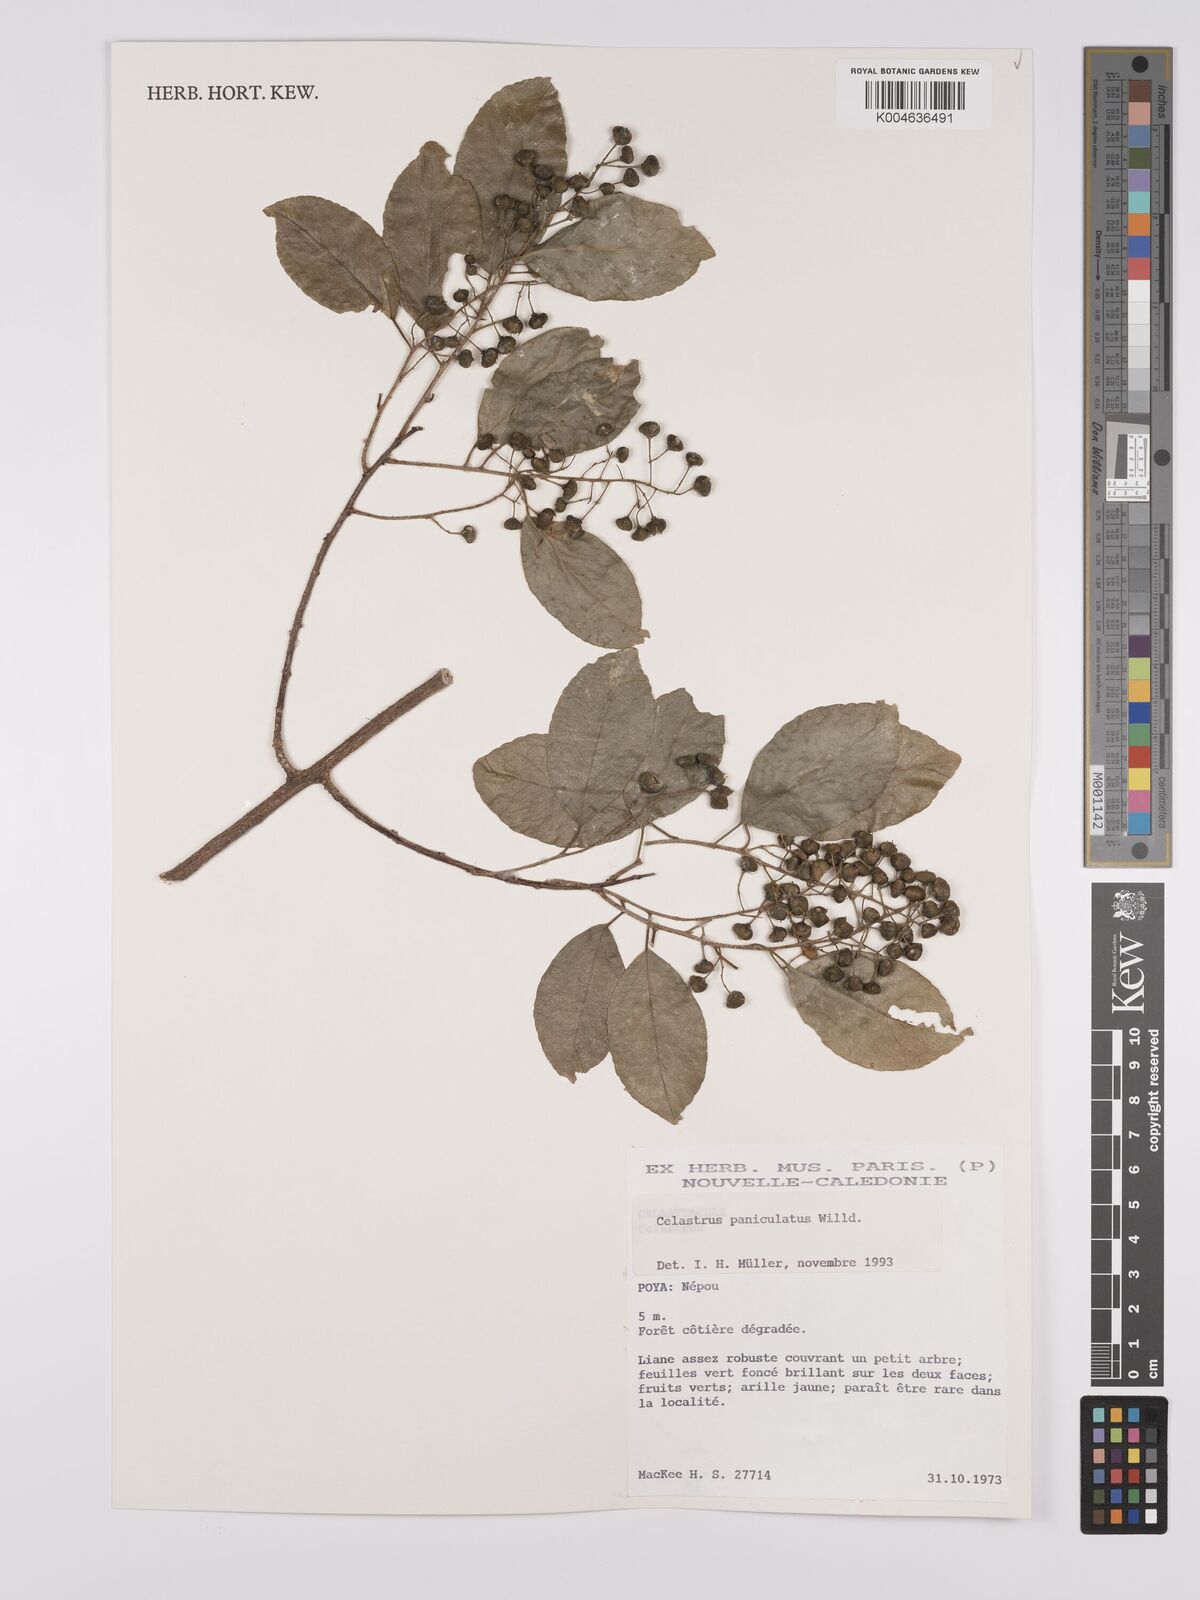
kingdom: Plantae
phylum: Tracheophyta
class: Magnoliopsida
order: Celastrales
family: Celastraceae
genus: Celastrus
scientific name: Celastrus paniculatus
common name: Oriental bittersweet; staff vine
